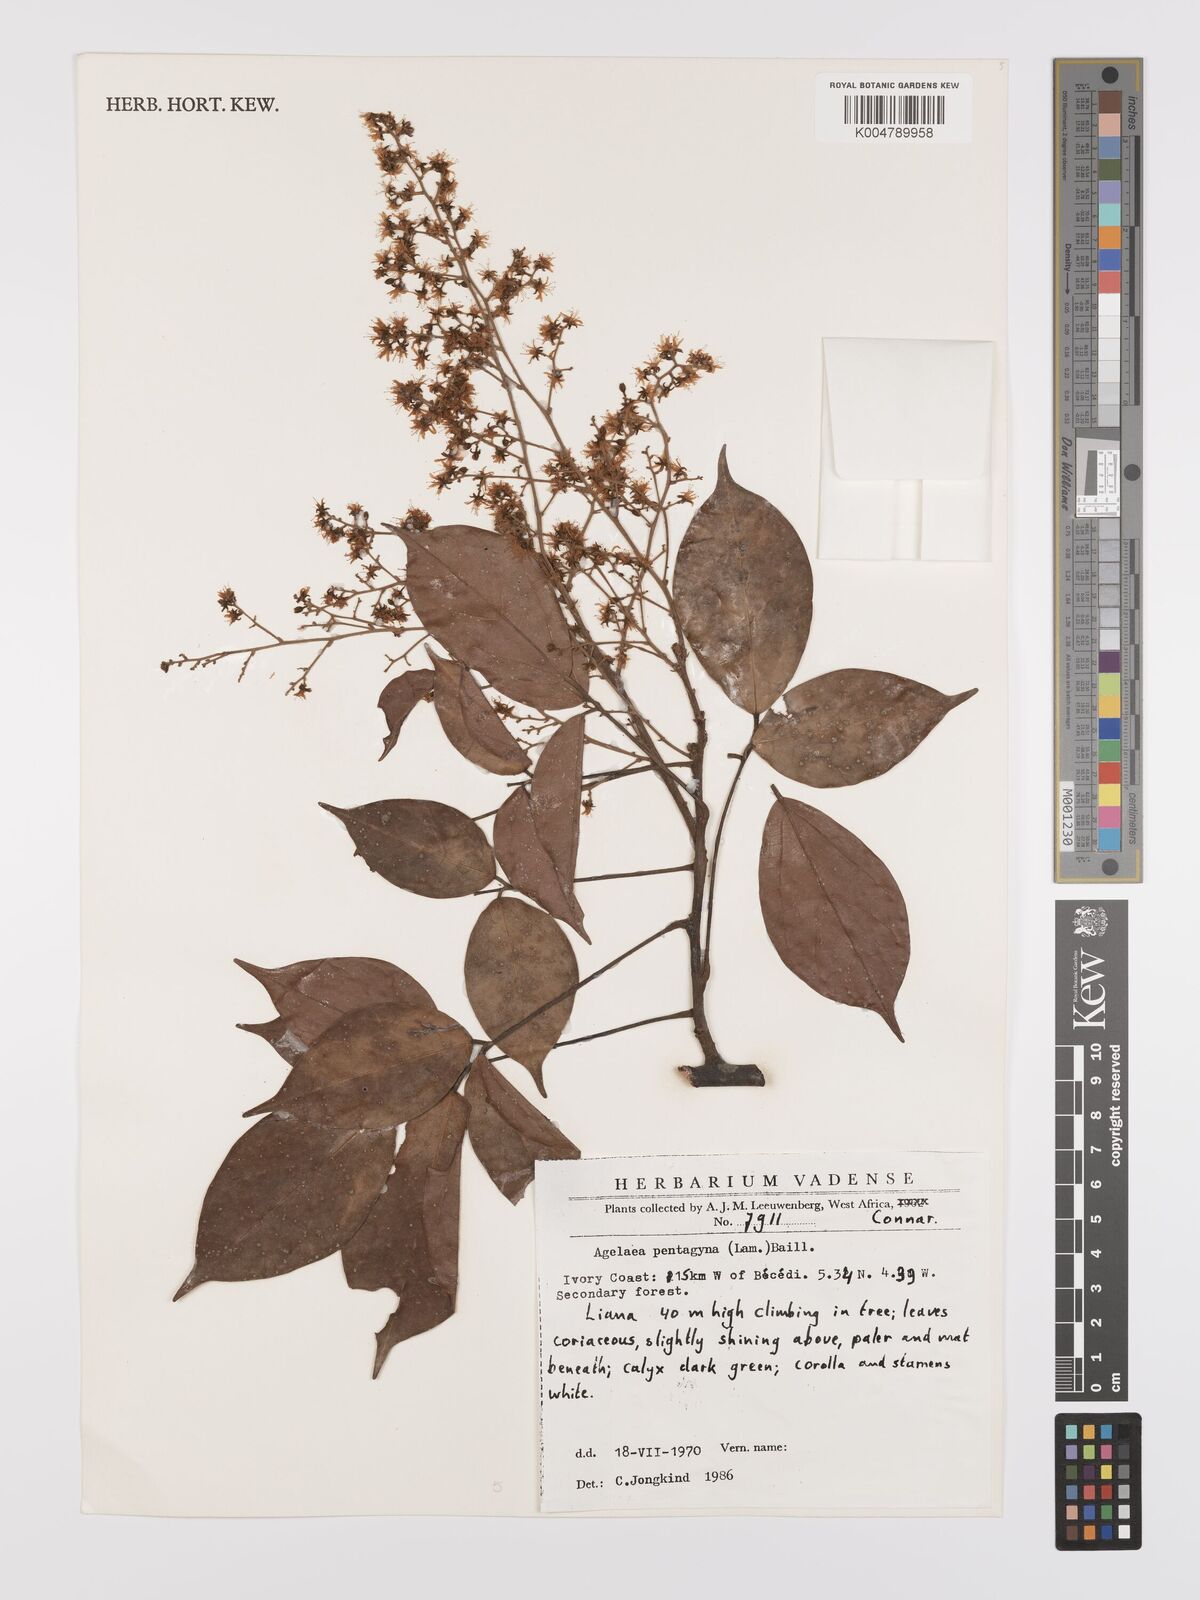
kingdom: Plantae
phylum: Tracheophyta
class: Magnoliopsida
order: Oxalidales
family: Connaraceae
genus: Agelaea
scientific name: Agelaea pentagyna
